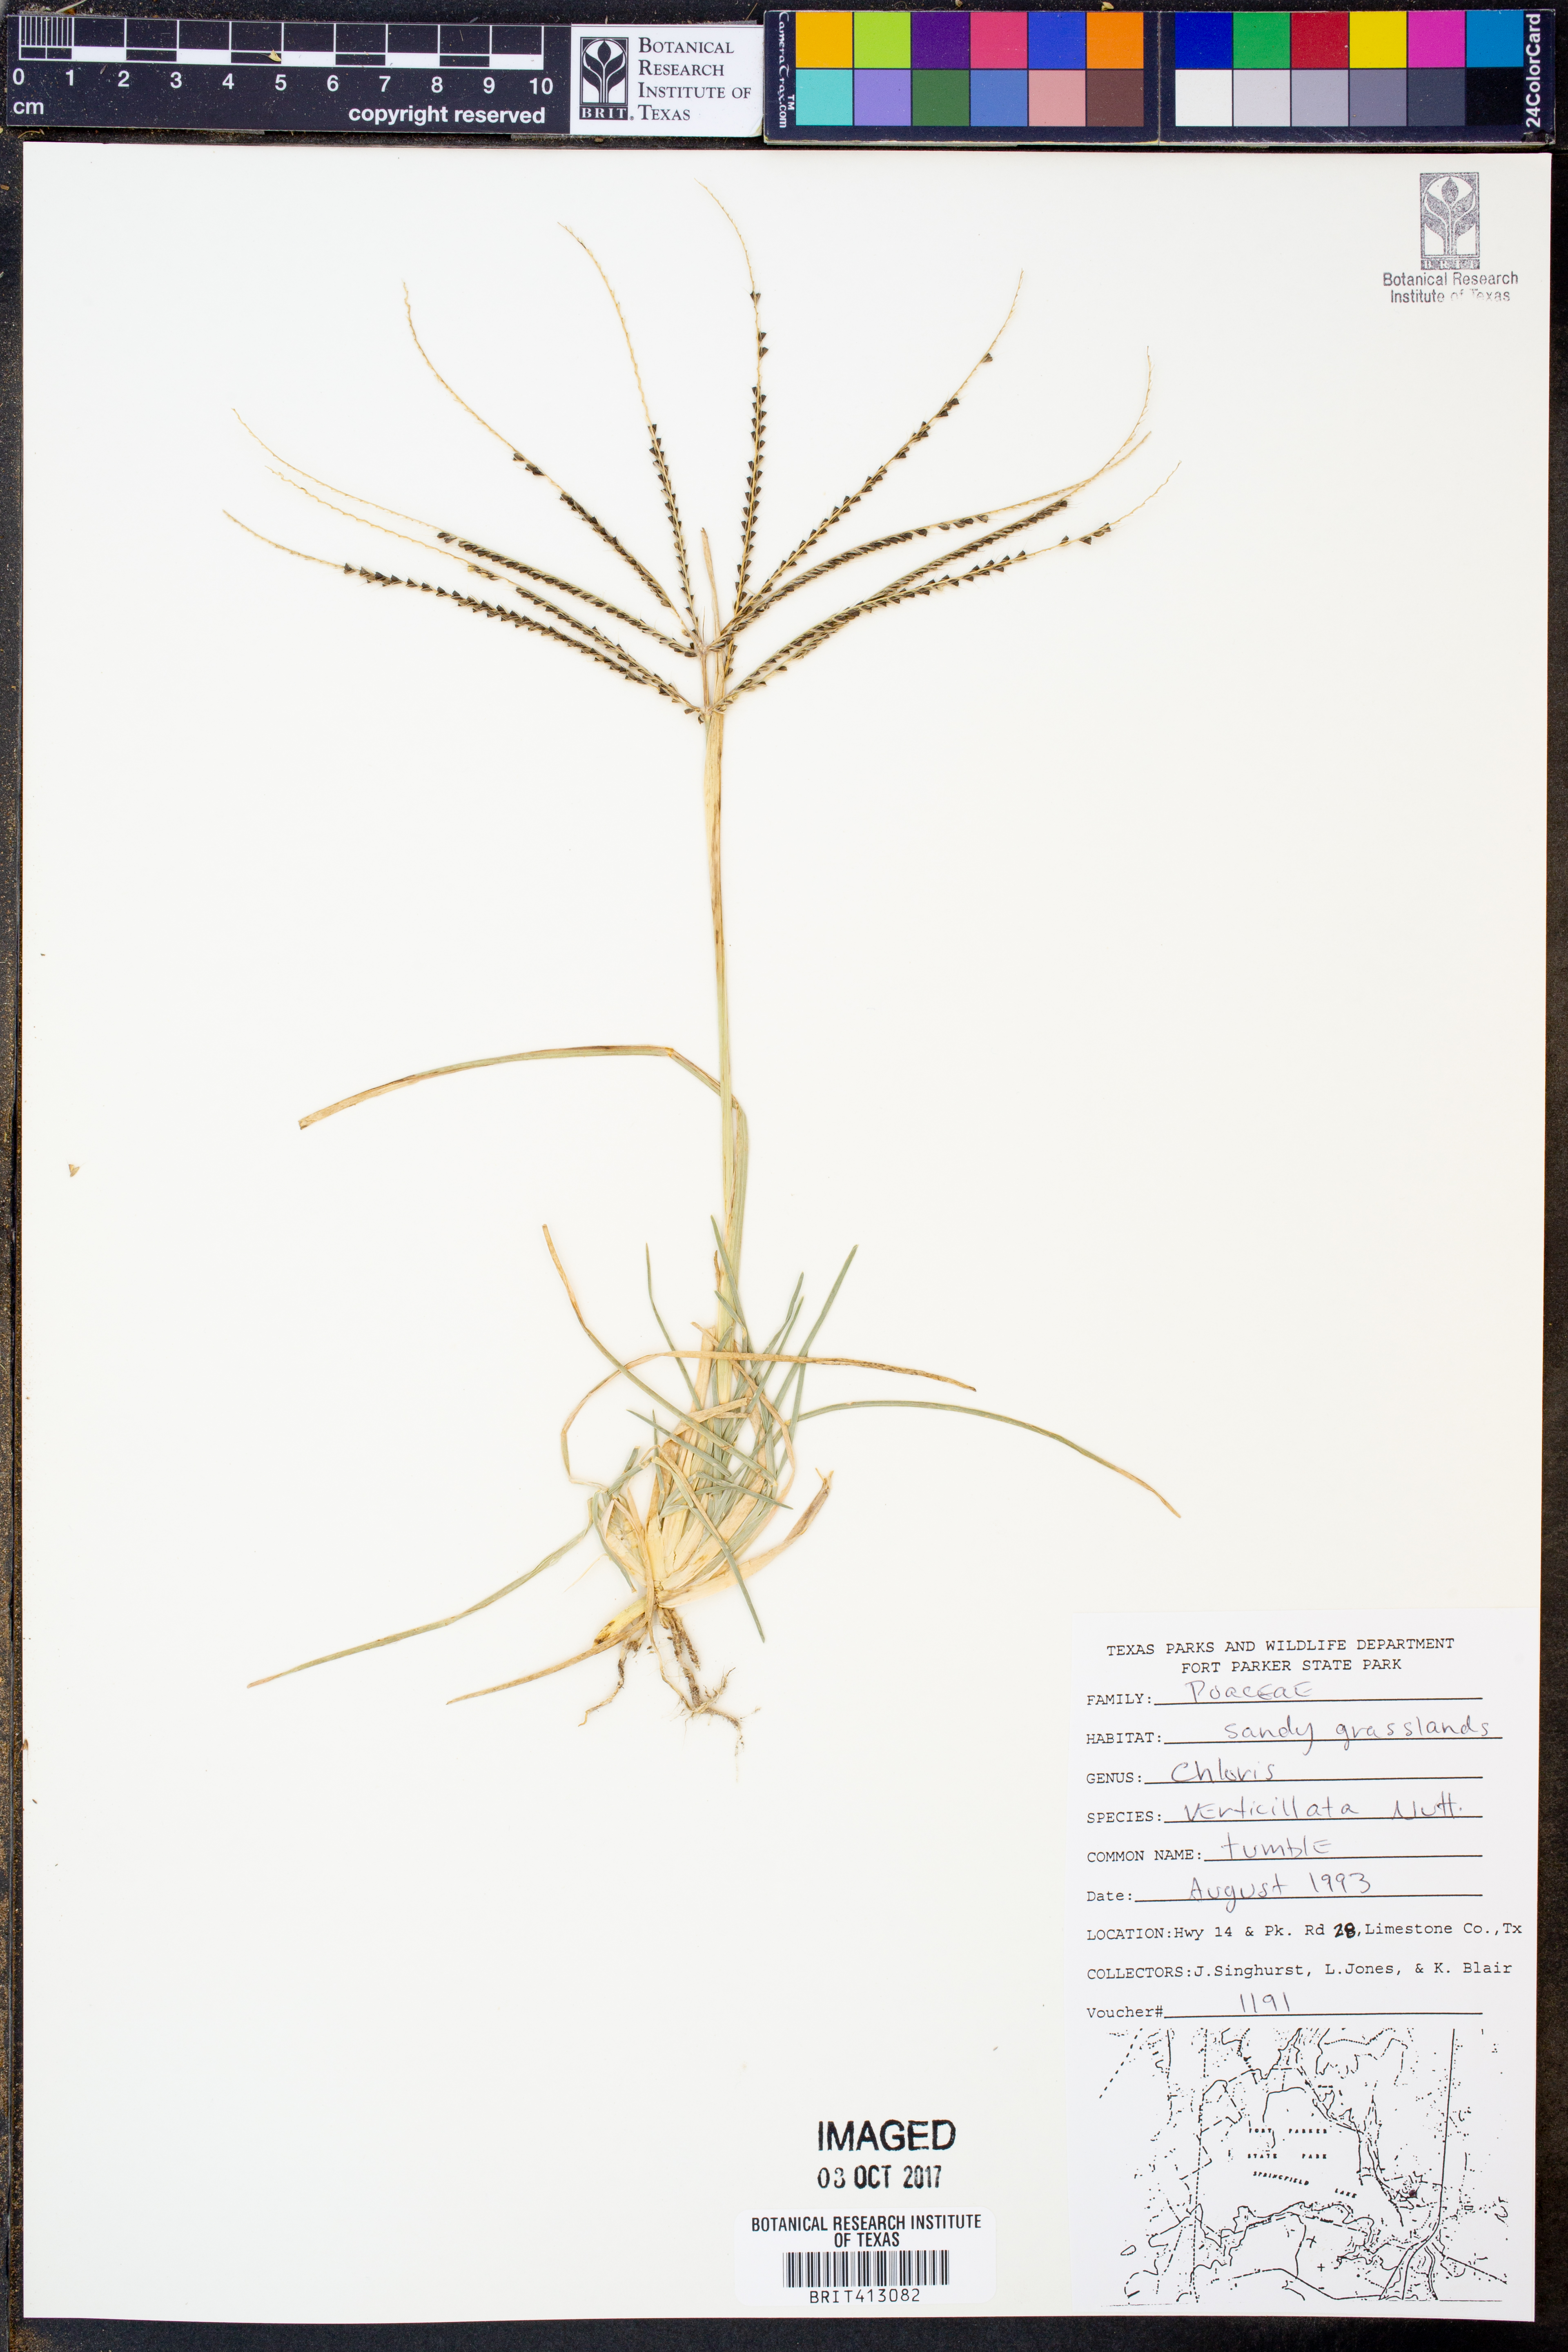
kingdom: Plantae
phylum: Tracheophyta
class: Liliopsida
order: Poales
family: Poaceae
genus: Chloris
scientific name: Chloris verticillata
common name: Tumble windmill grass
